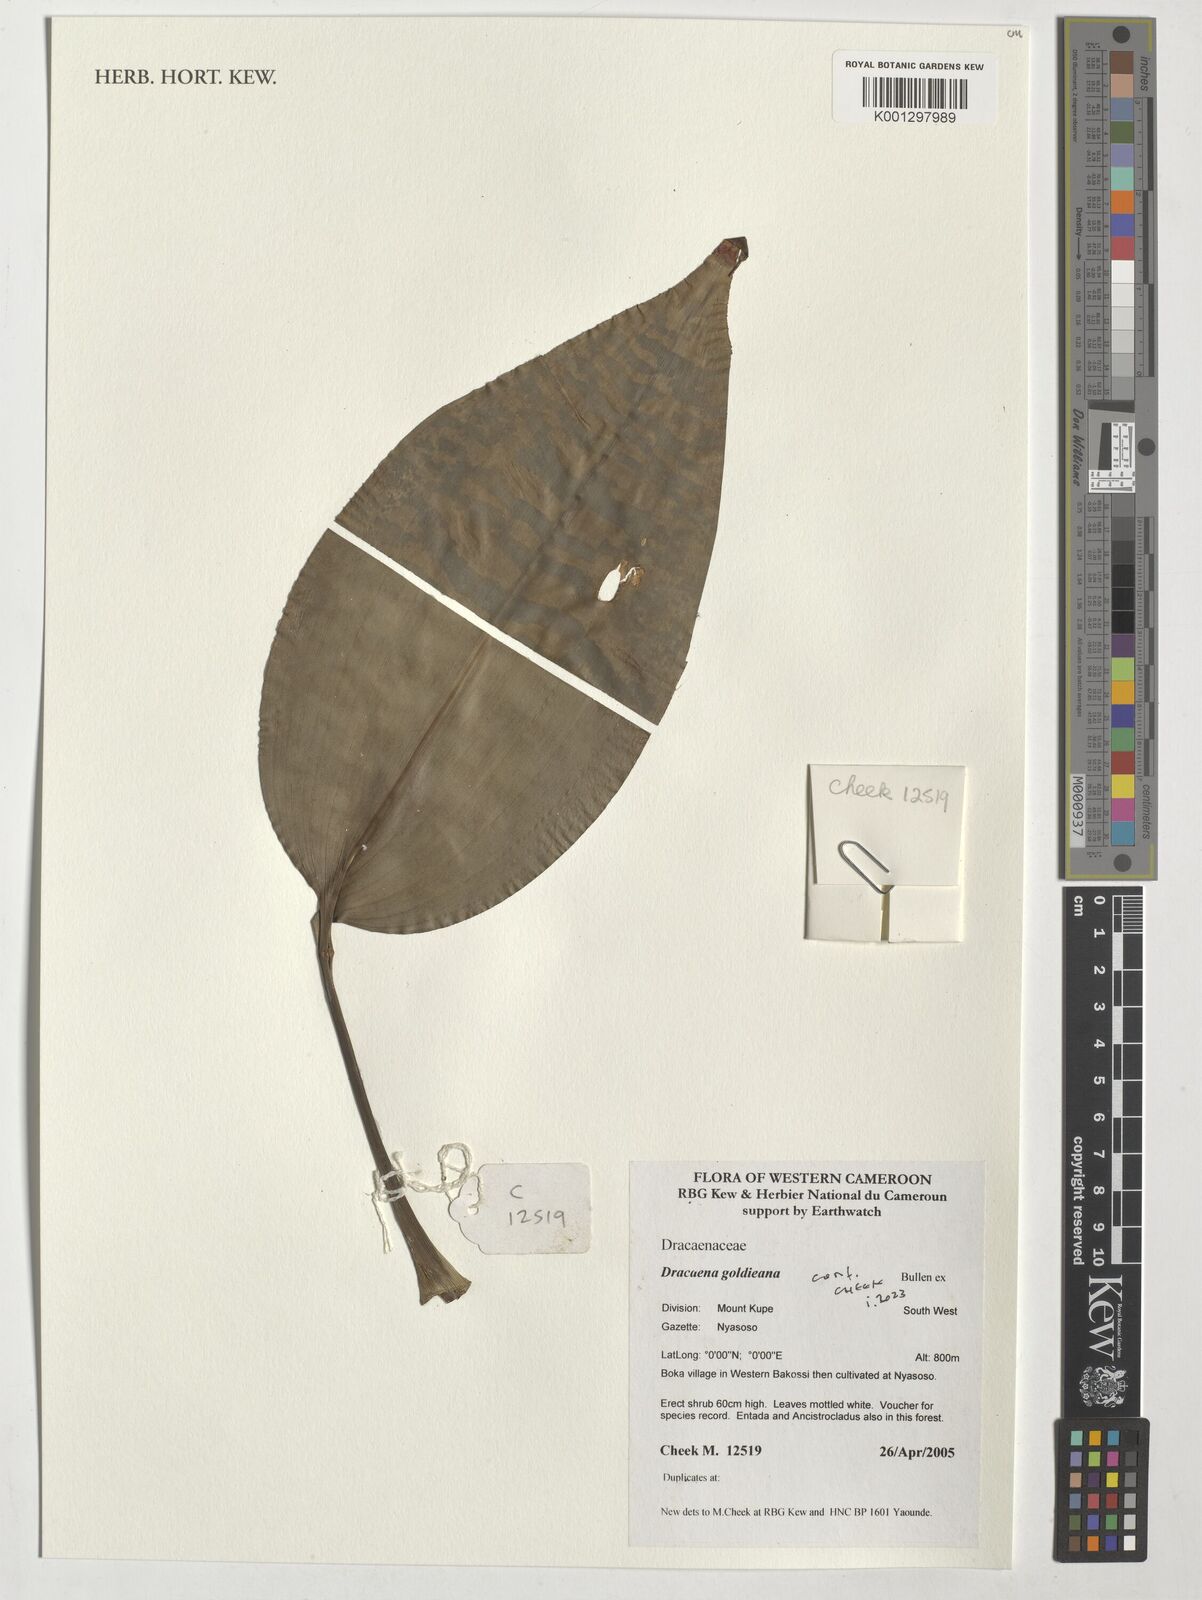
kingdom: Plantae
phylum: Tracheophyta
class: Liliopsida
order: Asparagales
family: Asparagaceae
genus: Dracaena
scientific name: Dracaena goldieana
